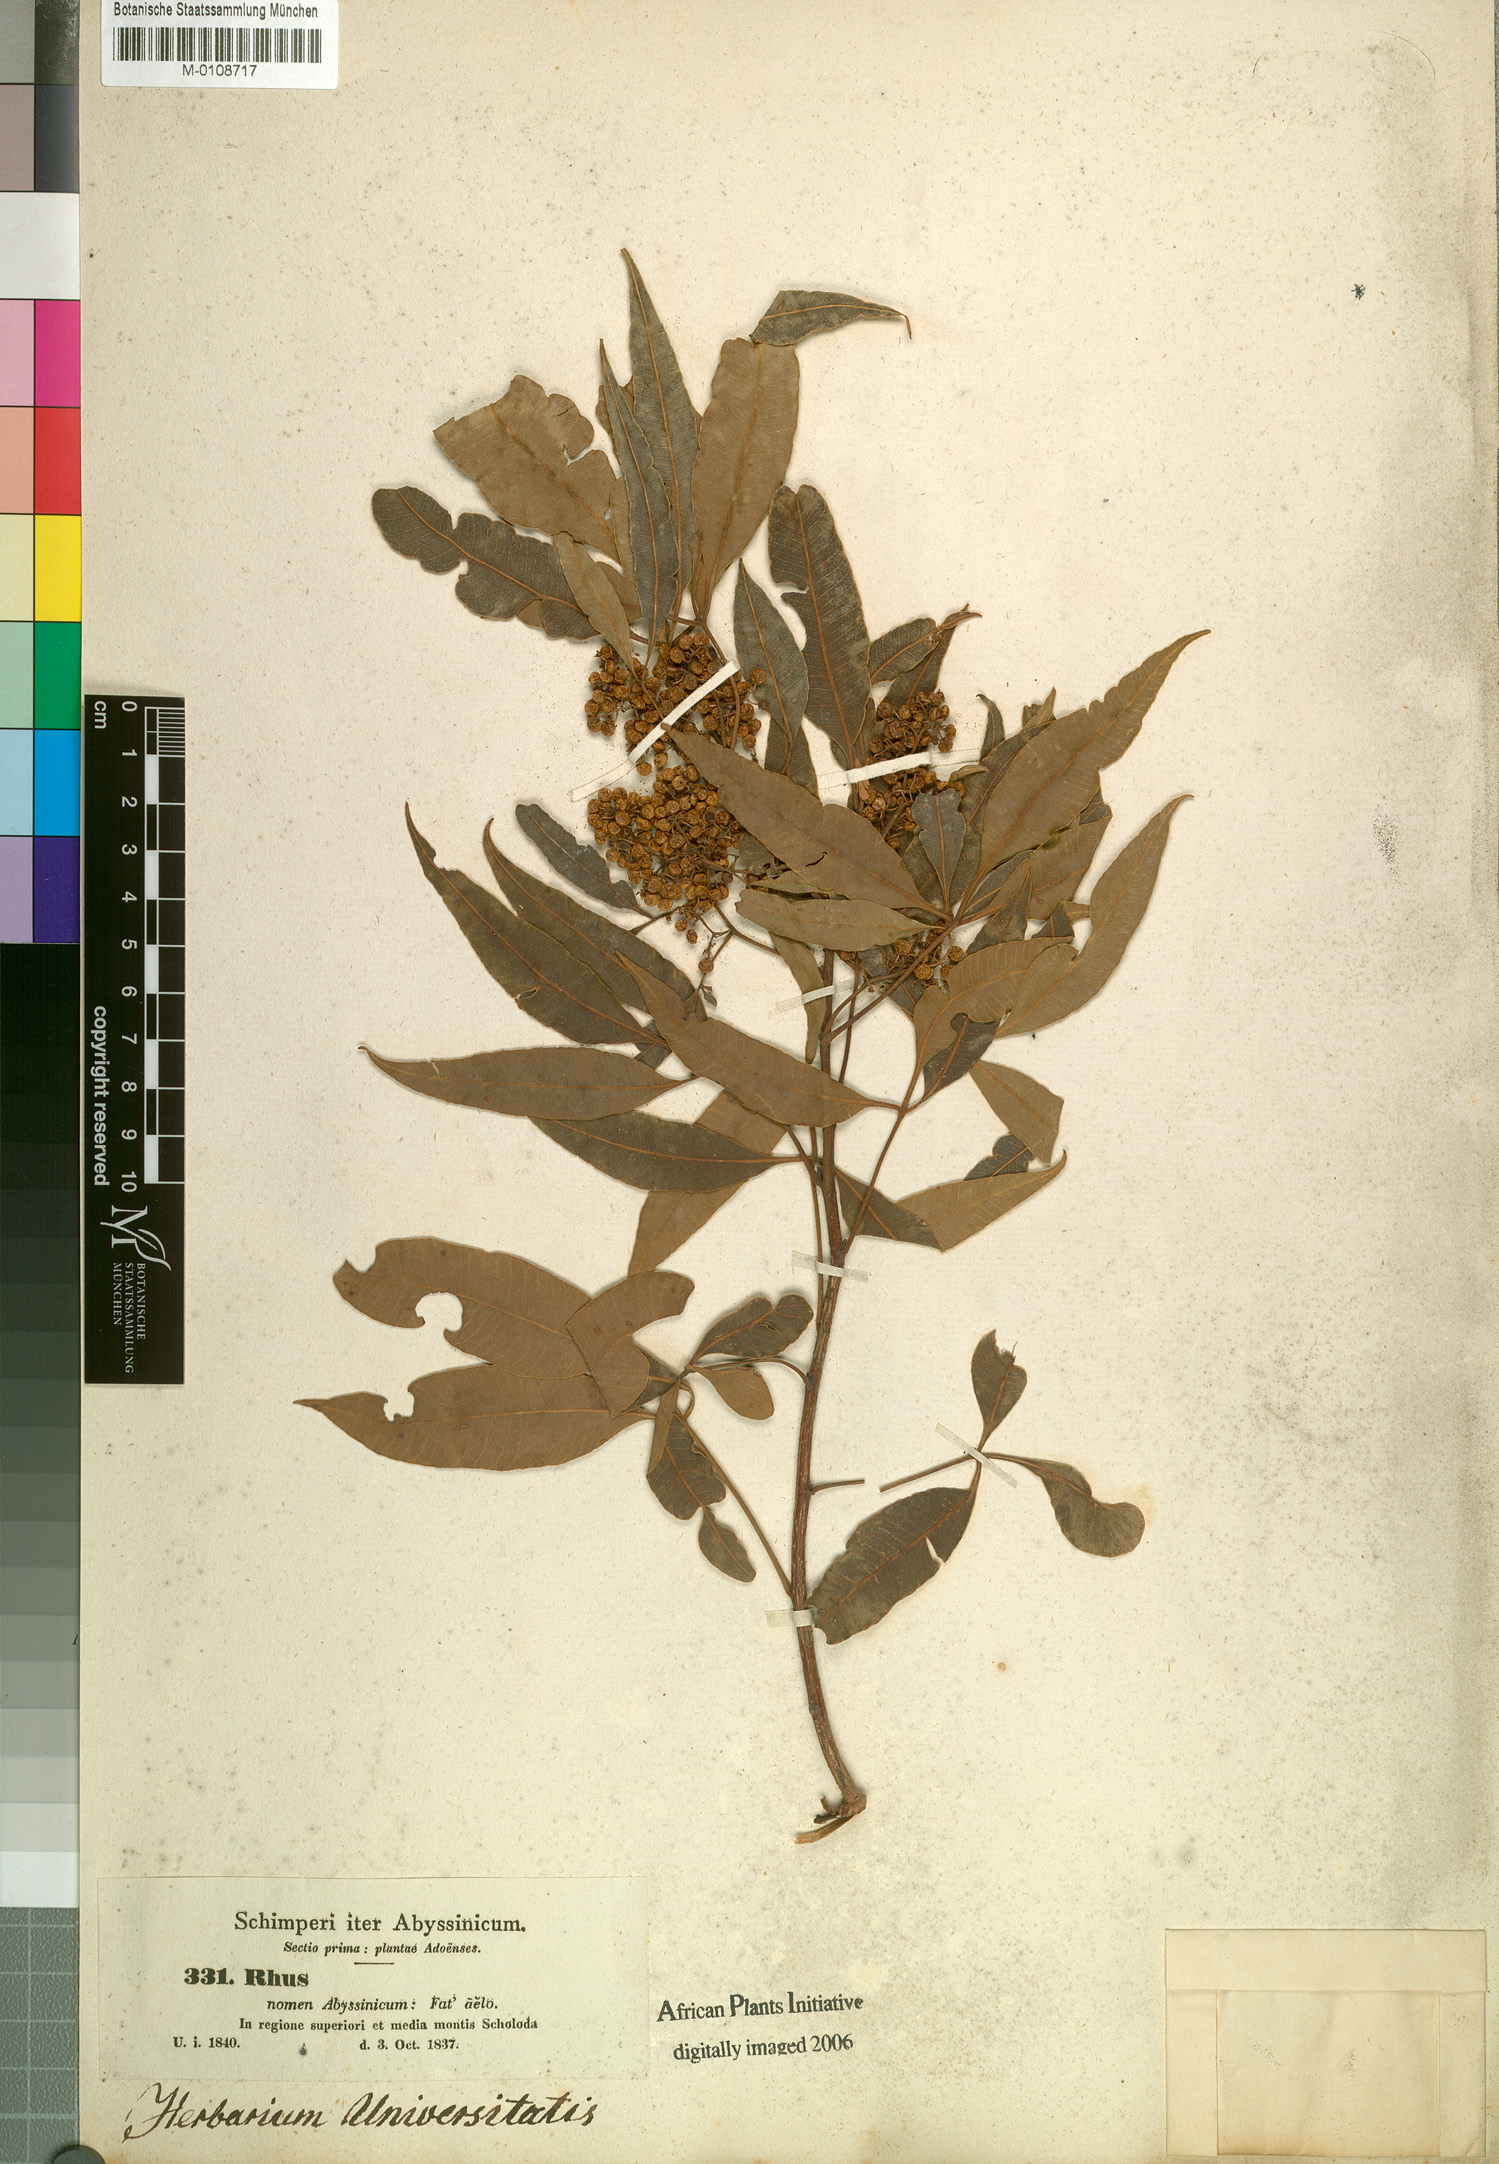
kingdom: Plantae
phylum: Tracheophyta
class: Magnoliopsida
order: Sapindales
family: Anacardiaceae
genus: Searsia
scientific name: Searsia laevigata
